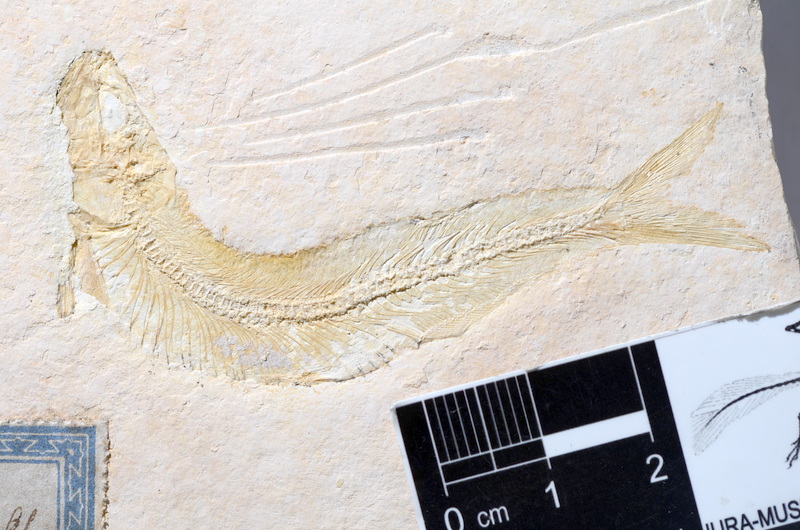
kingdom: Animalia
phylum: Chordata
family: Allothrissopidae
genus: Allothrissops
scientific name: Allothrissops mesogaster
